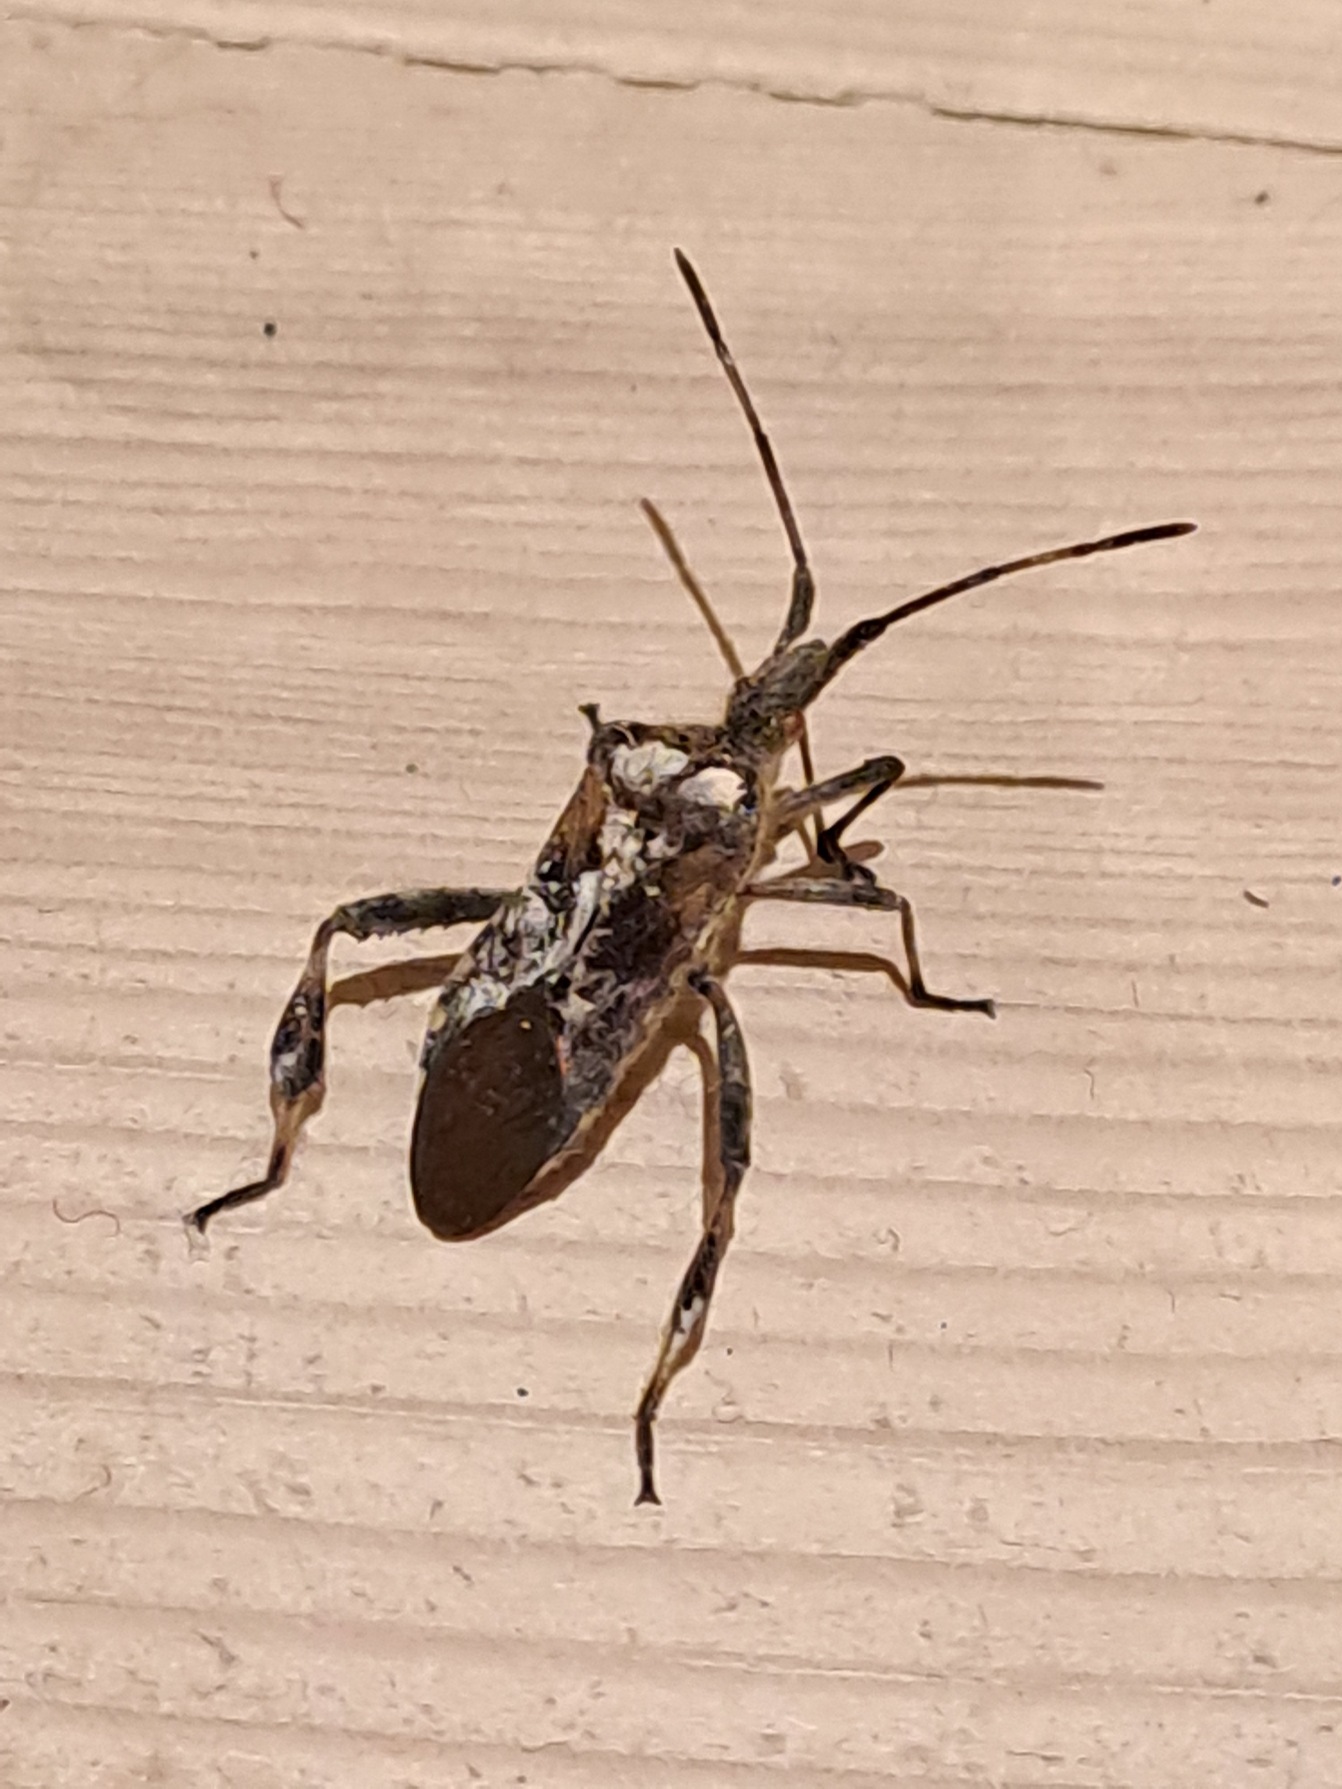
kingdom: Animalia
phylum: Arthropoda
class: Insecta
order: Hemiptera
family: Coreidae
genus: Leptoglossus
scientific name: Leptoglossus occidentalis
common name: Amerikansk fyrretæge
